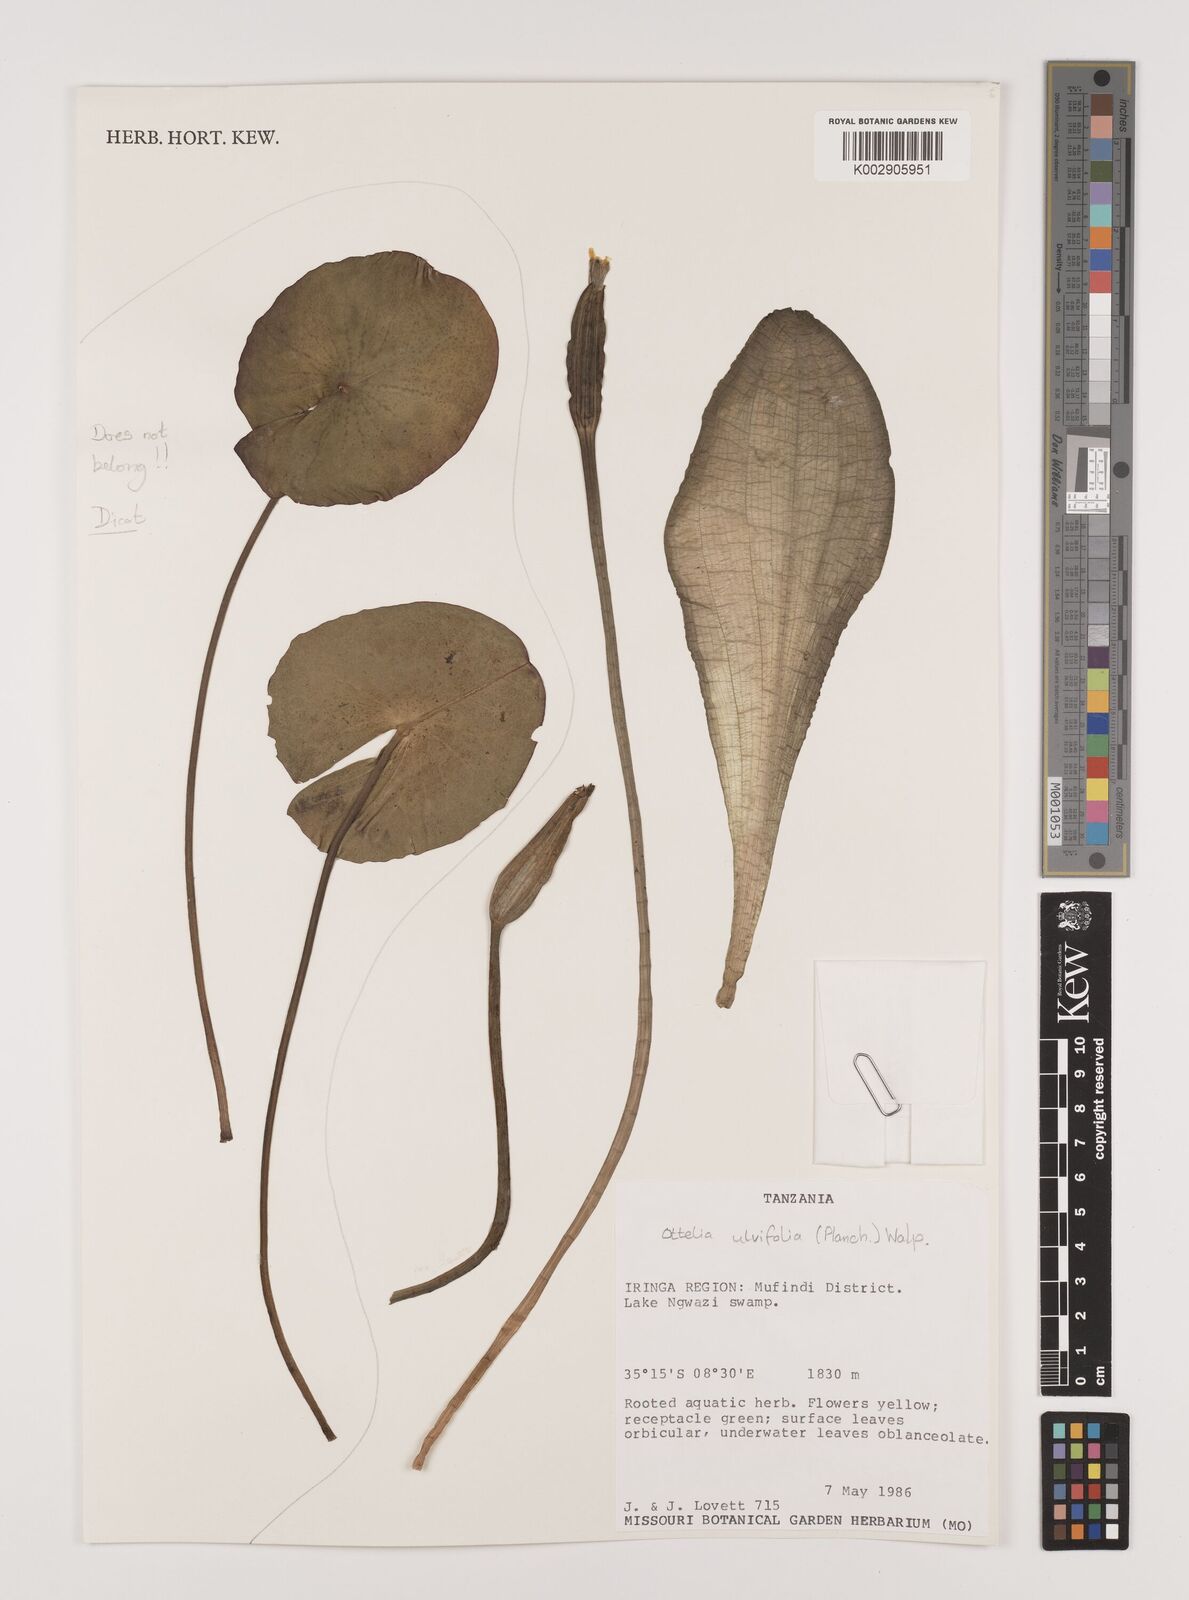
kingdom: Plantae
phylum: Tracheophyta
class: Liliopsida
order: Alismatales
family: Hydrocharitaceae
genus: Ottelia
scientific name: Ottelia ulvifolia
